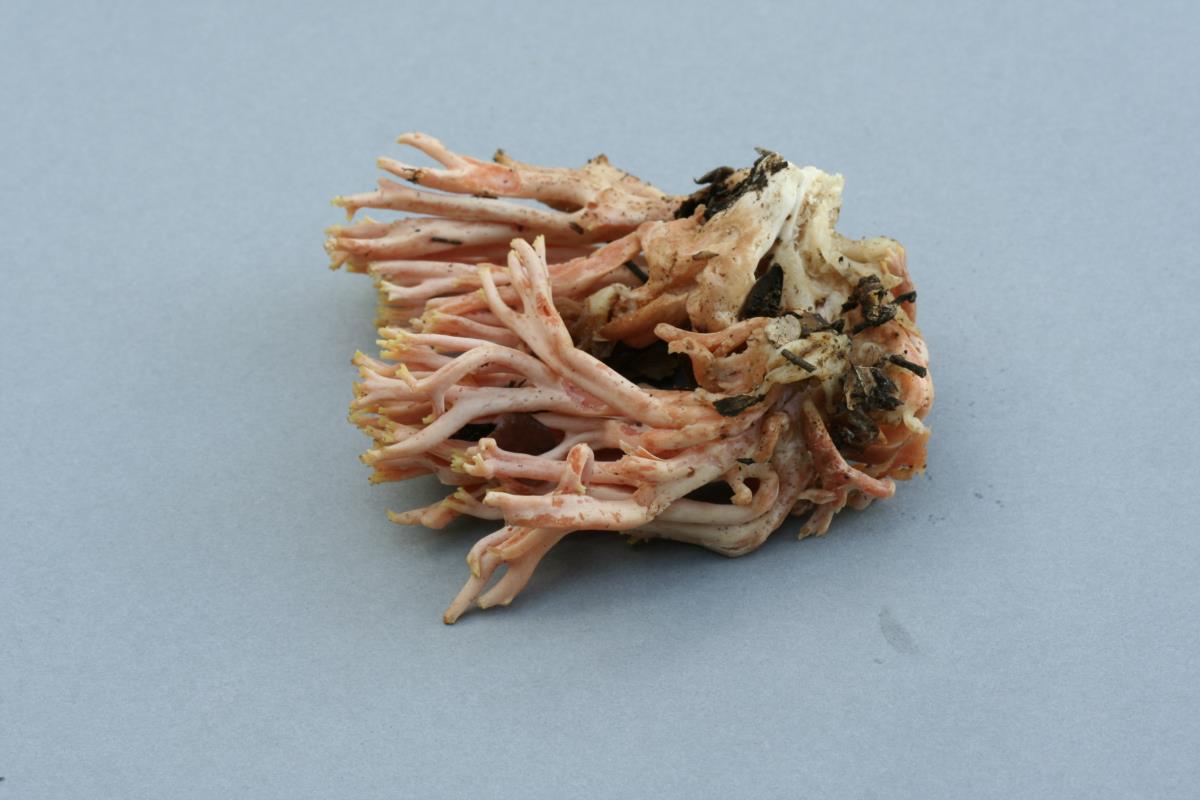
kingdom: Fungi
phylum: Basidiomycota
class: Agaricomycetes
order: Agaricales
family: Clavariaceae
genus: Ramariopsis
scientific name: Ramariopsis ramarioides
